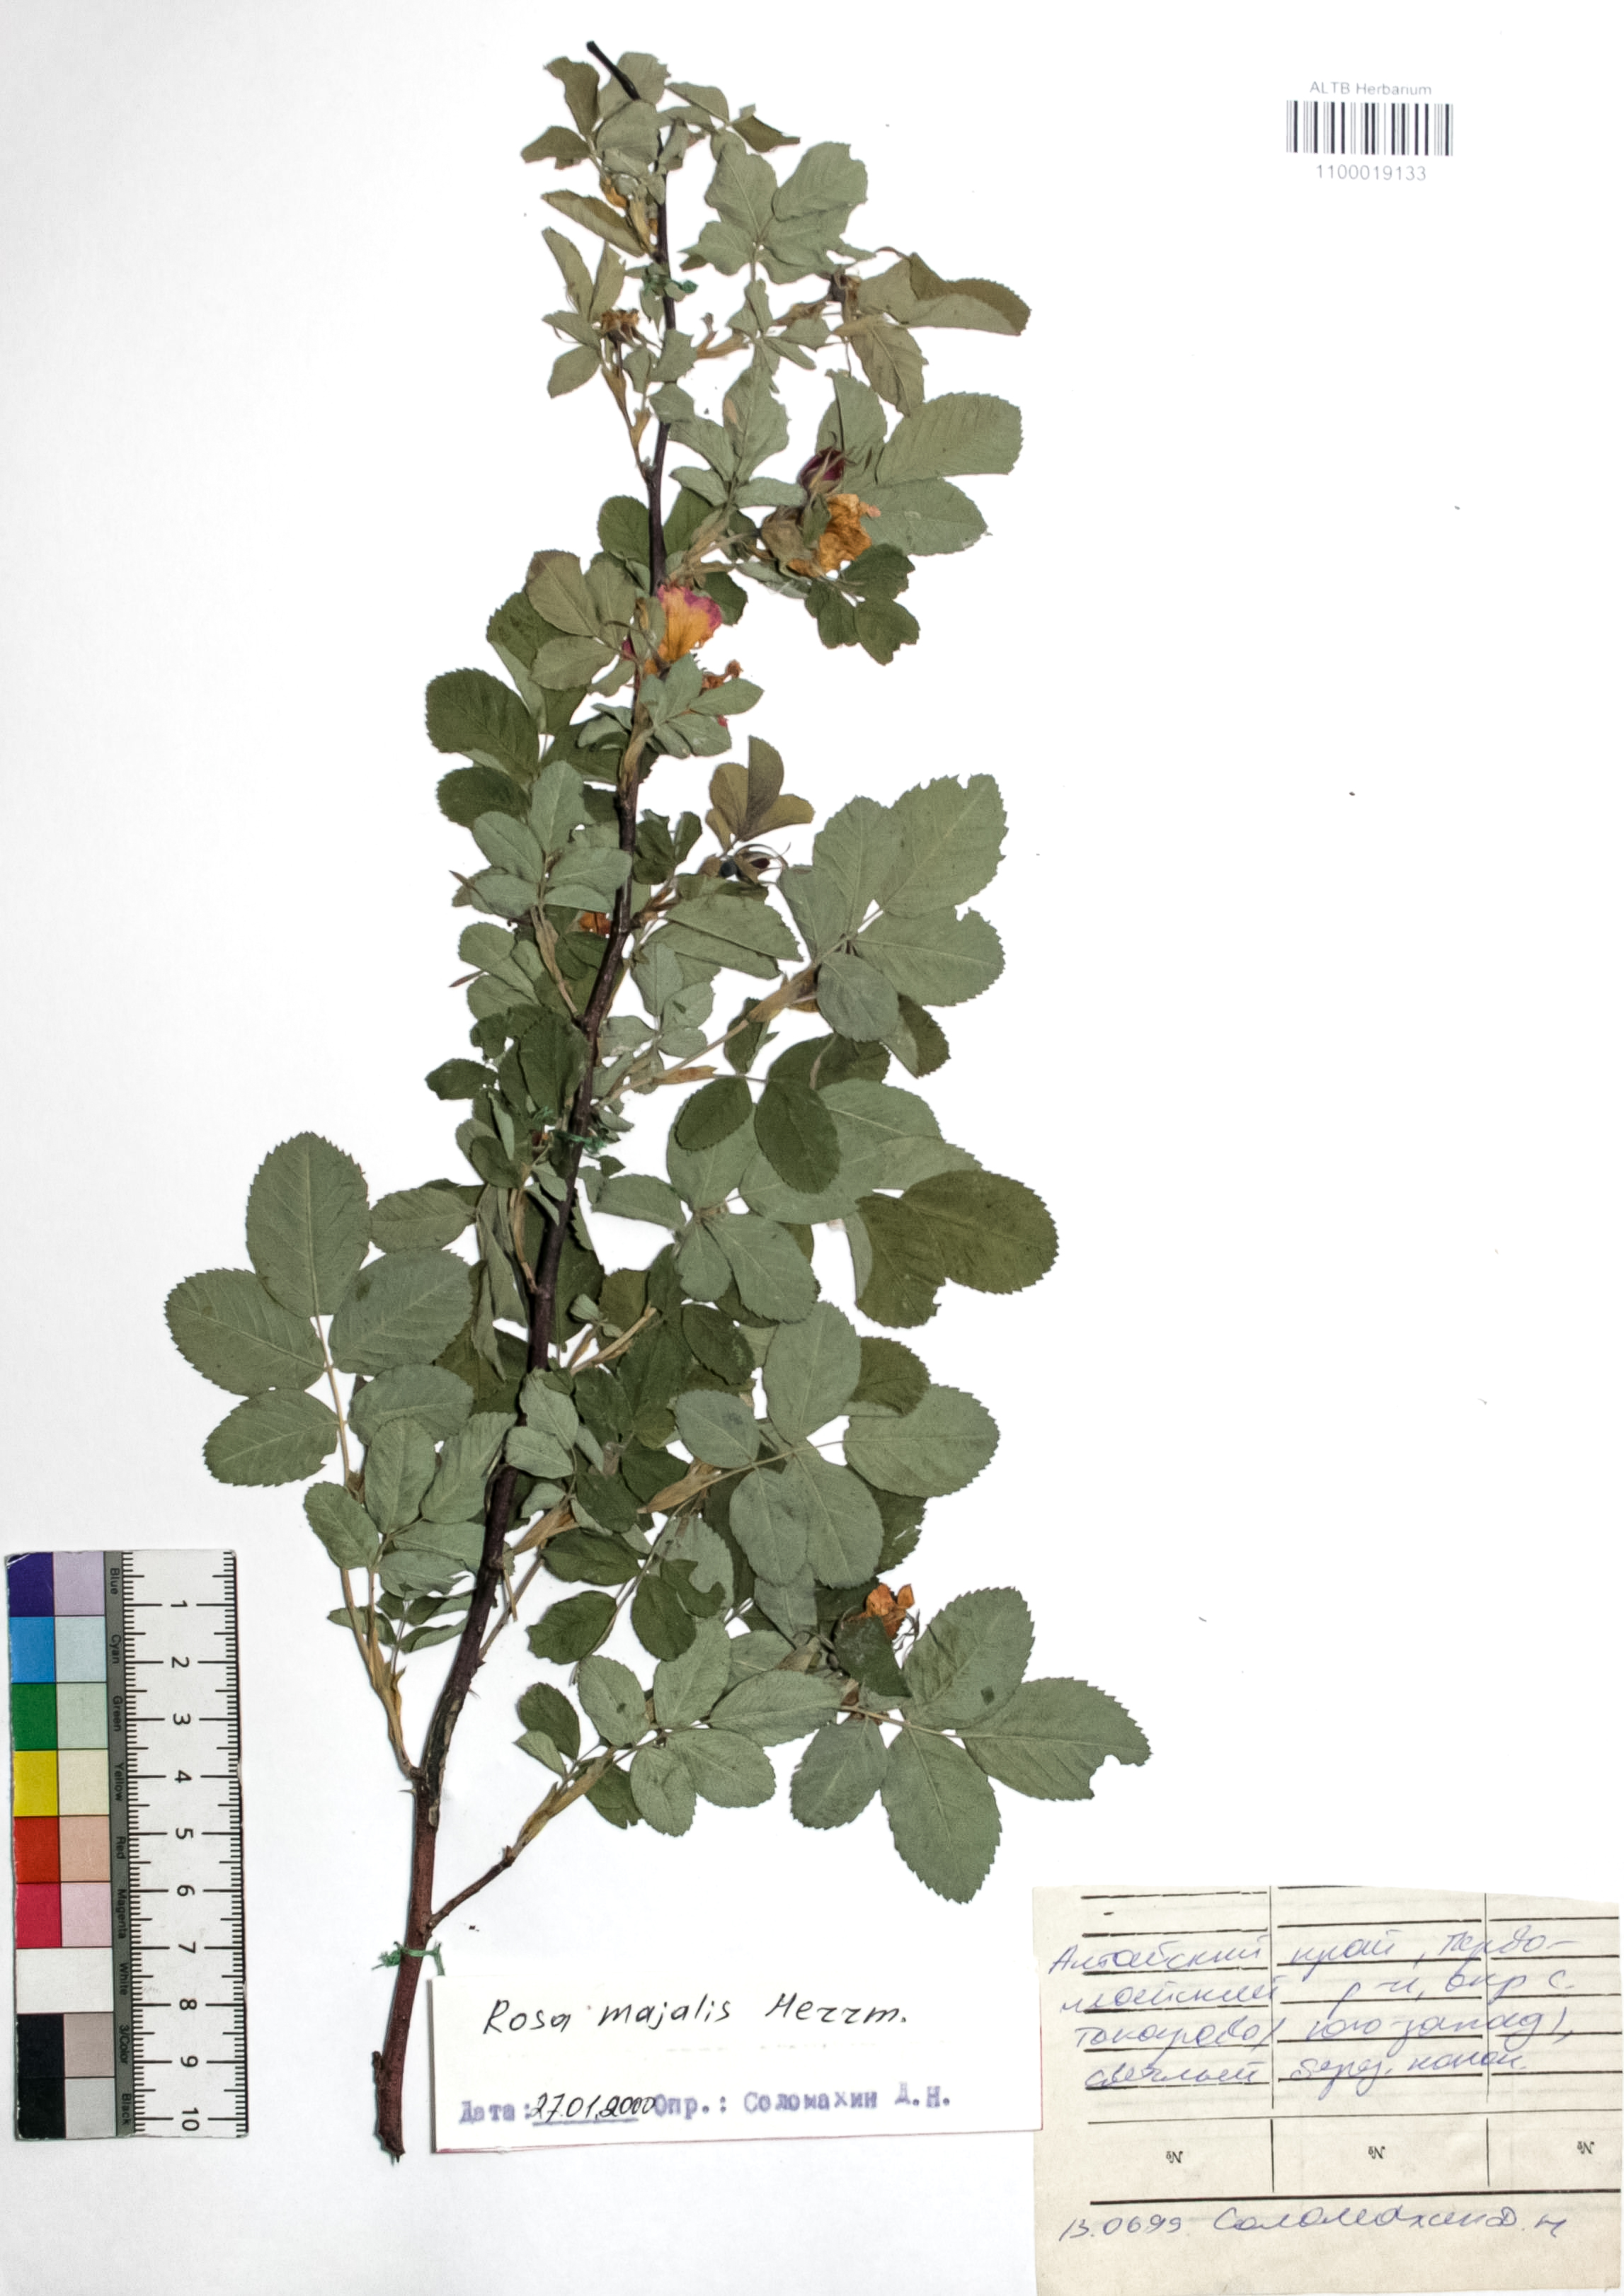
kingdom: Plantae
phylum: Tracheophyta
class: Magnoliopsida
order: Rosales
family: Rosaceae
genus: Rosa
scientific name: Rosa majalis
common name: Cinnamon rose
